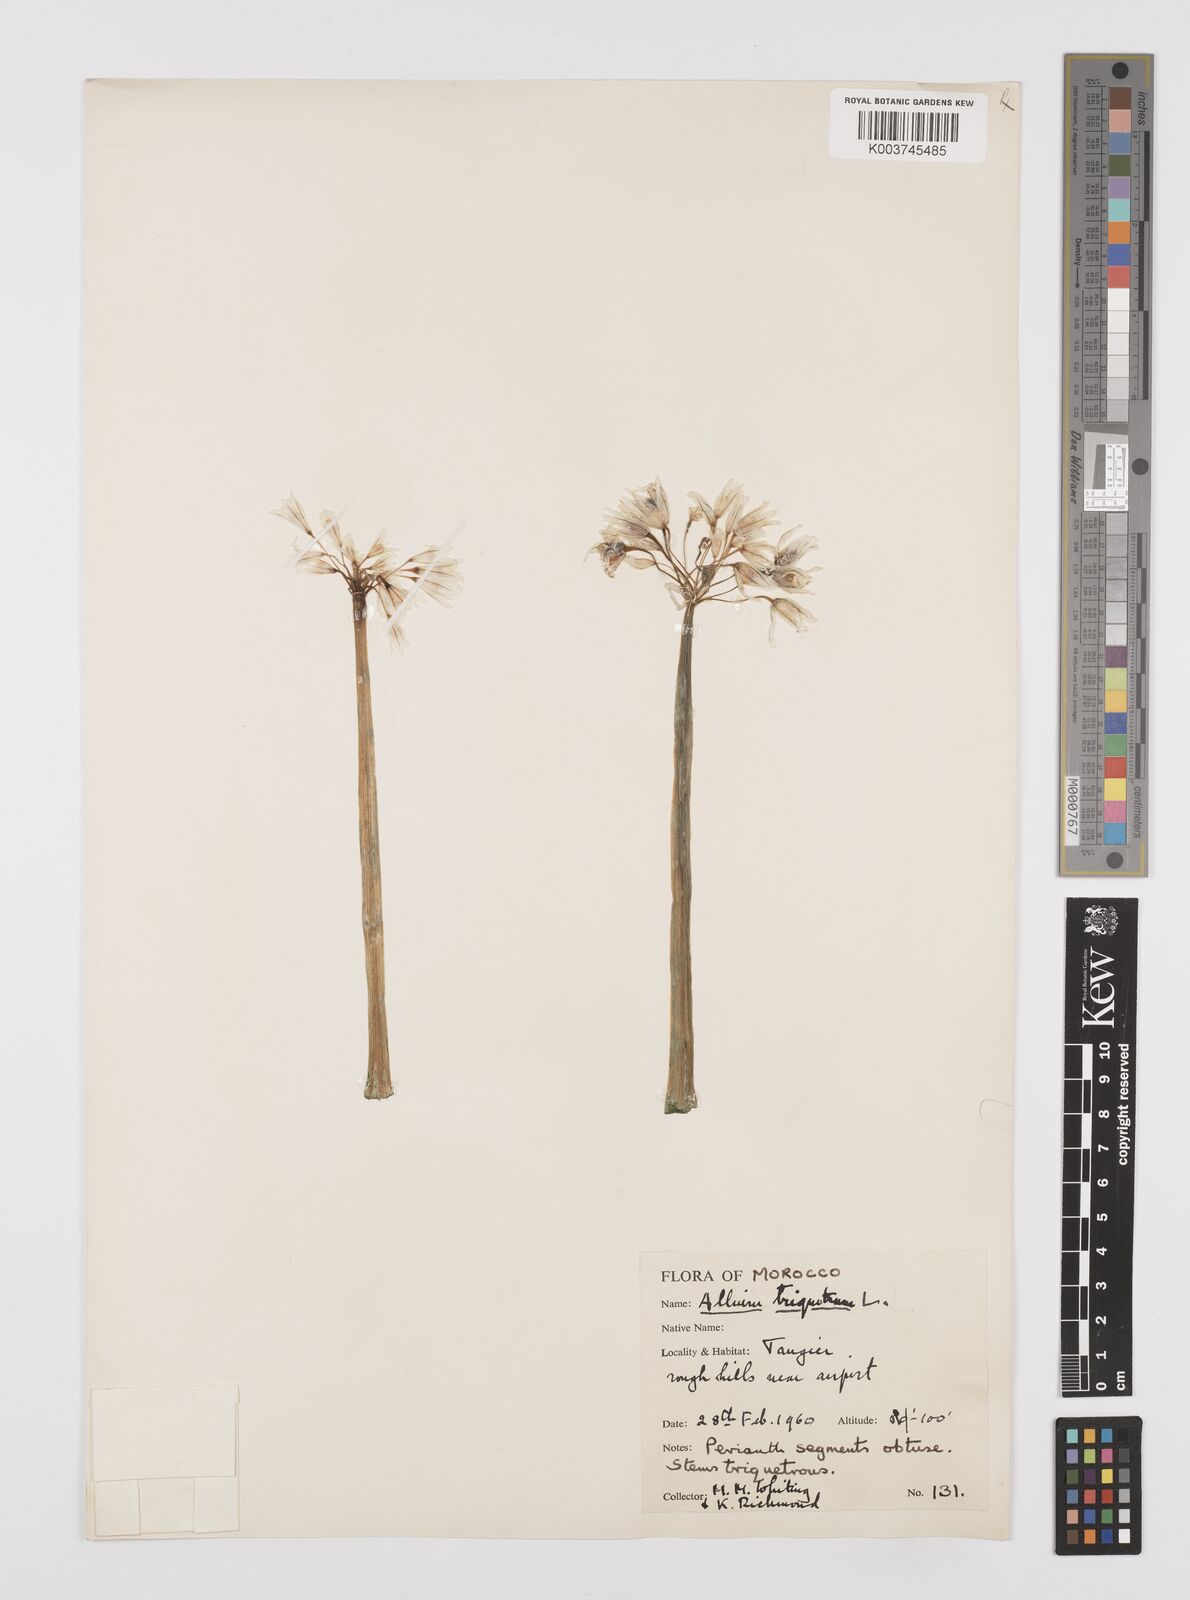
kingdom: Plantae
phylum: Tracheophyta
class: Liliopsida
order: Asparagales
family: Amaryllidaceae
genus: Allium
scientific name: Allium triquetrum
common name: Three-cornered garlic
